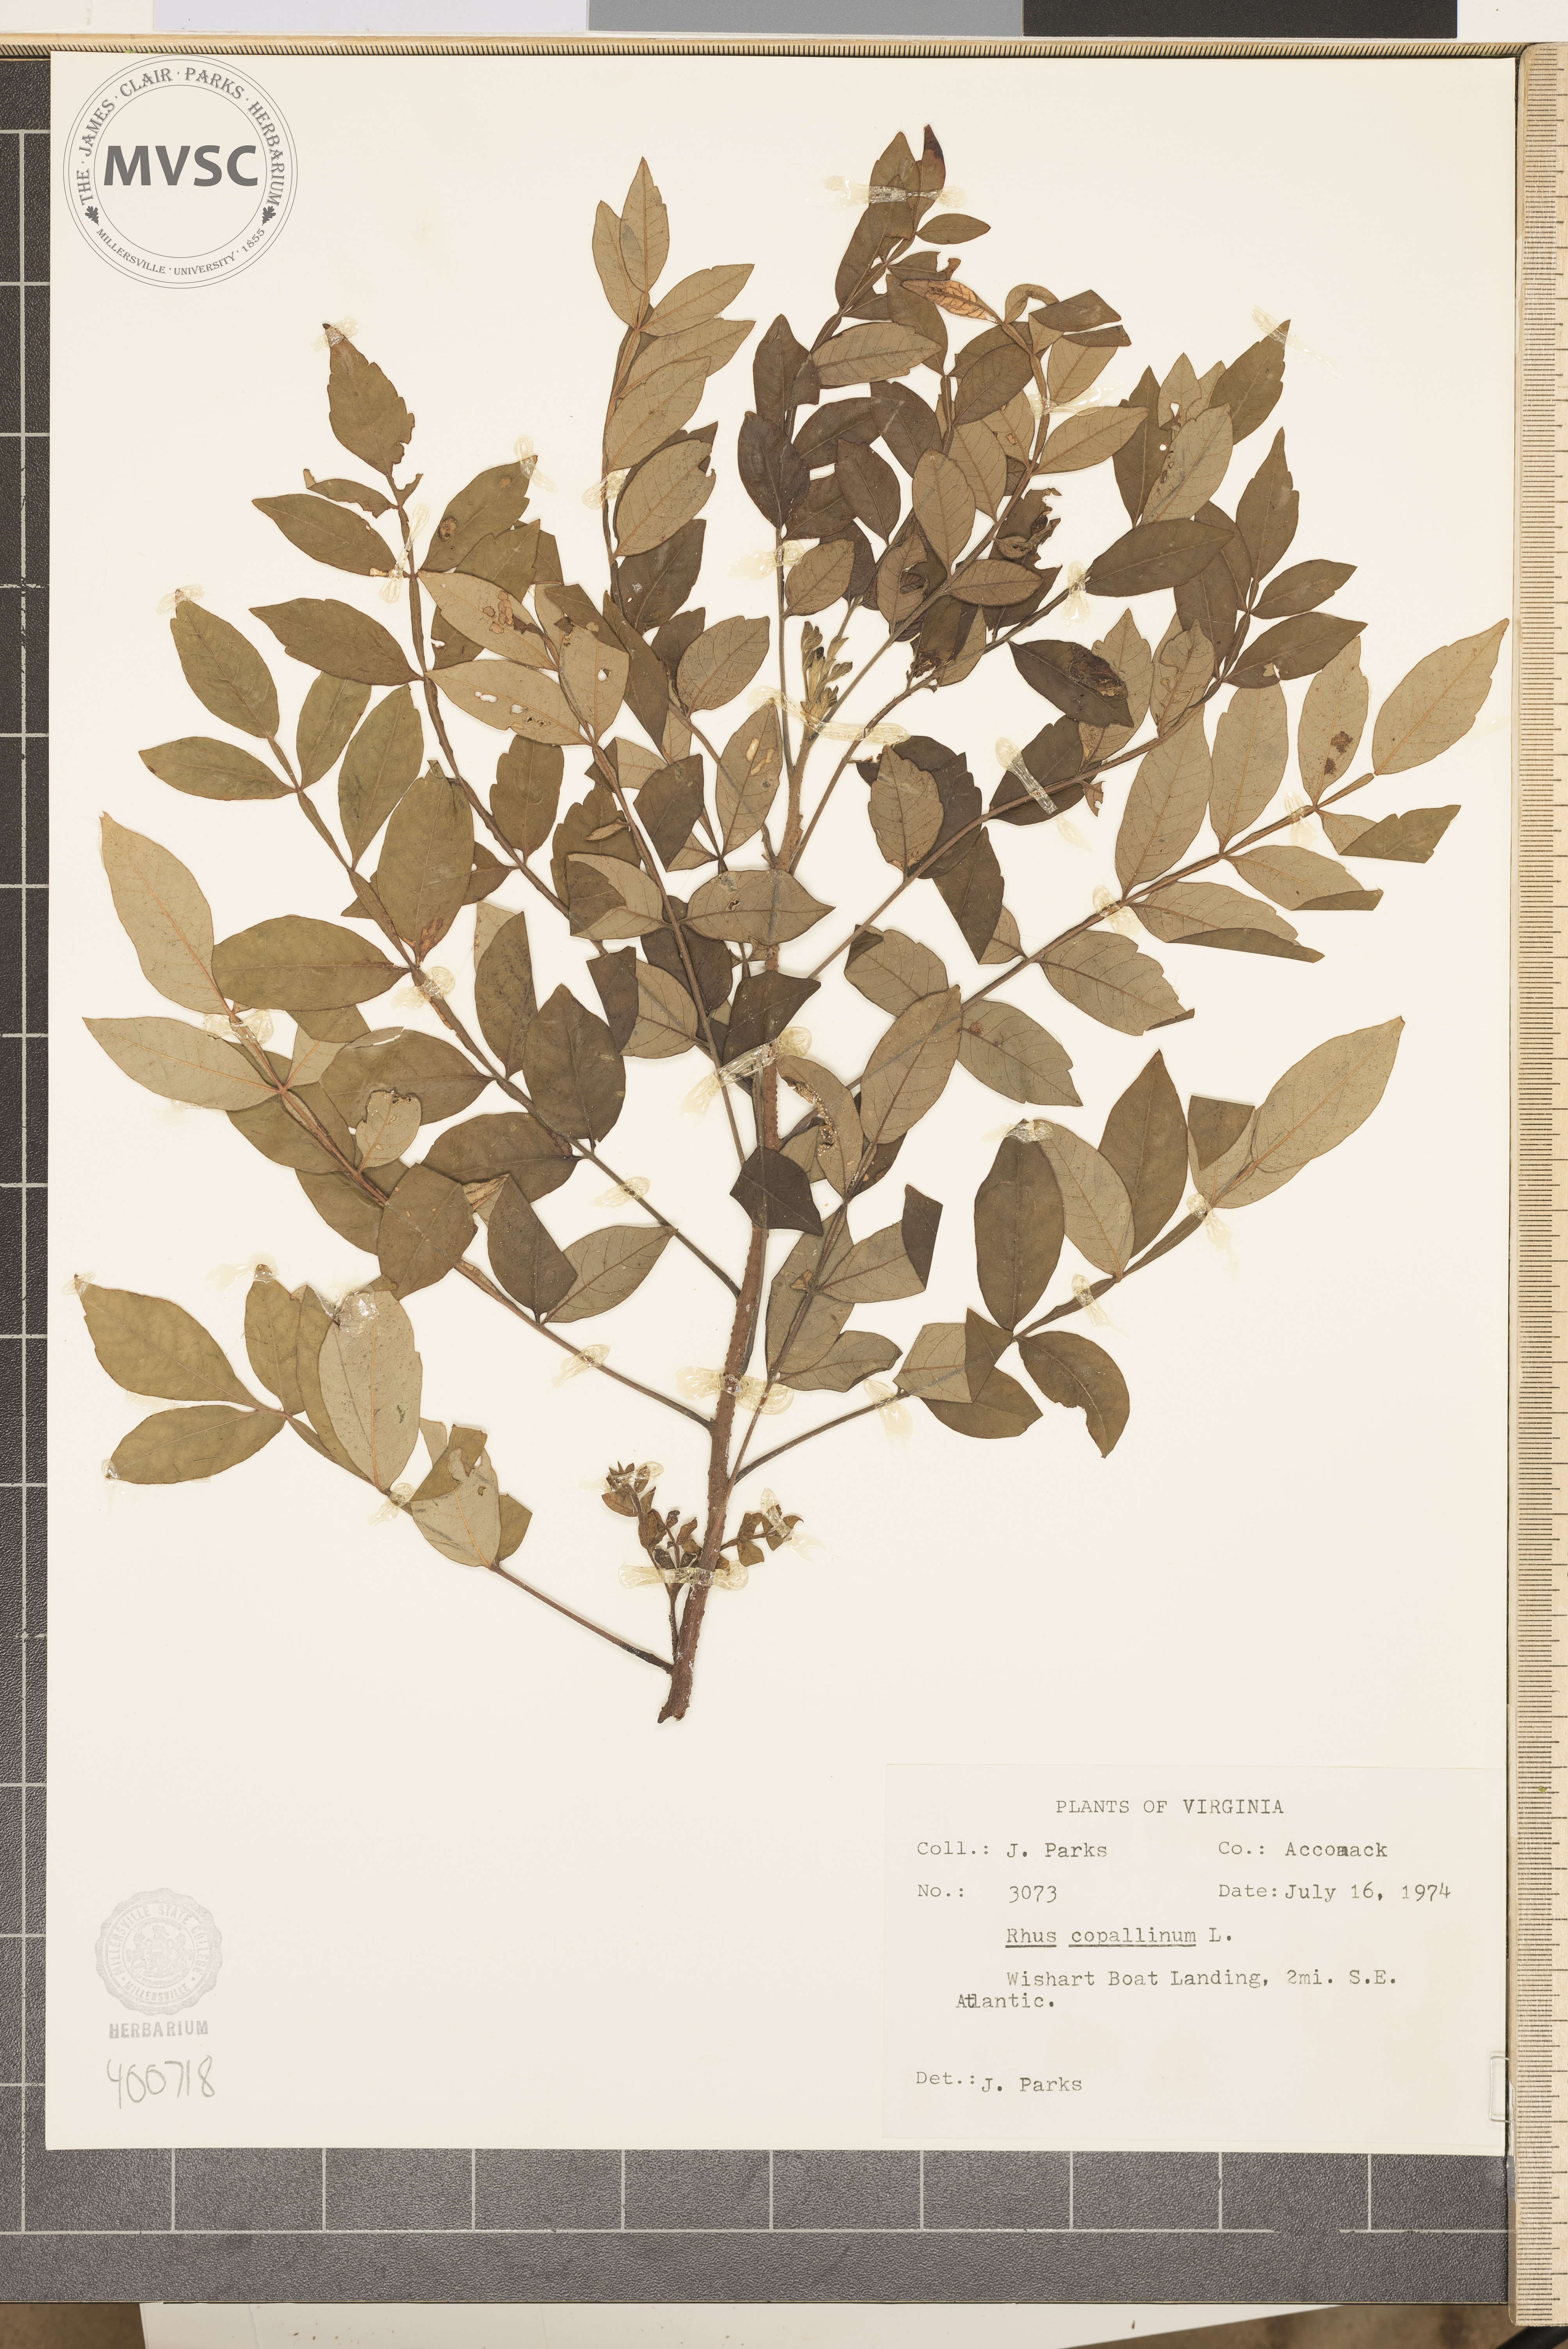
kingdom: Plantae
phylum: Tracheophyta
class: Magnoliopsida
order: Sapindales
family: Anacardiaceae
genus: Rhus
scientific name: Rhus copallina
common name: sumac
